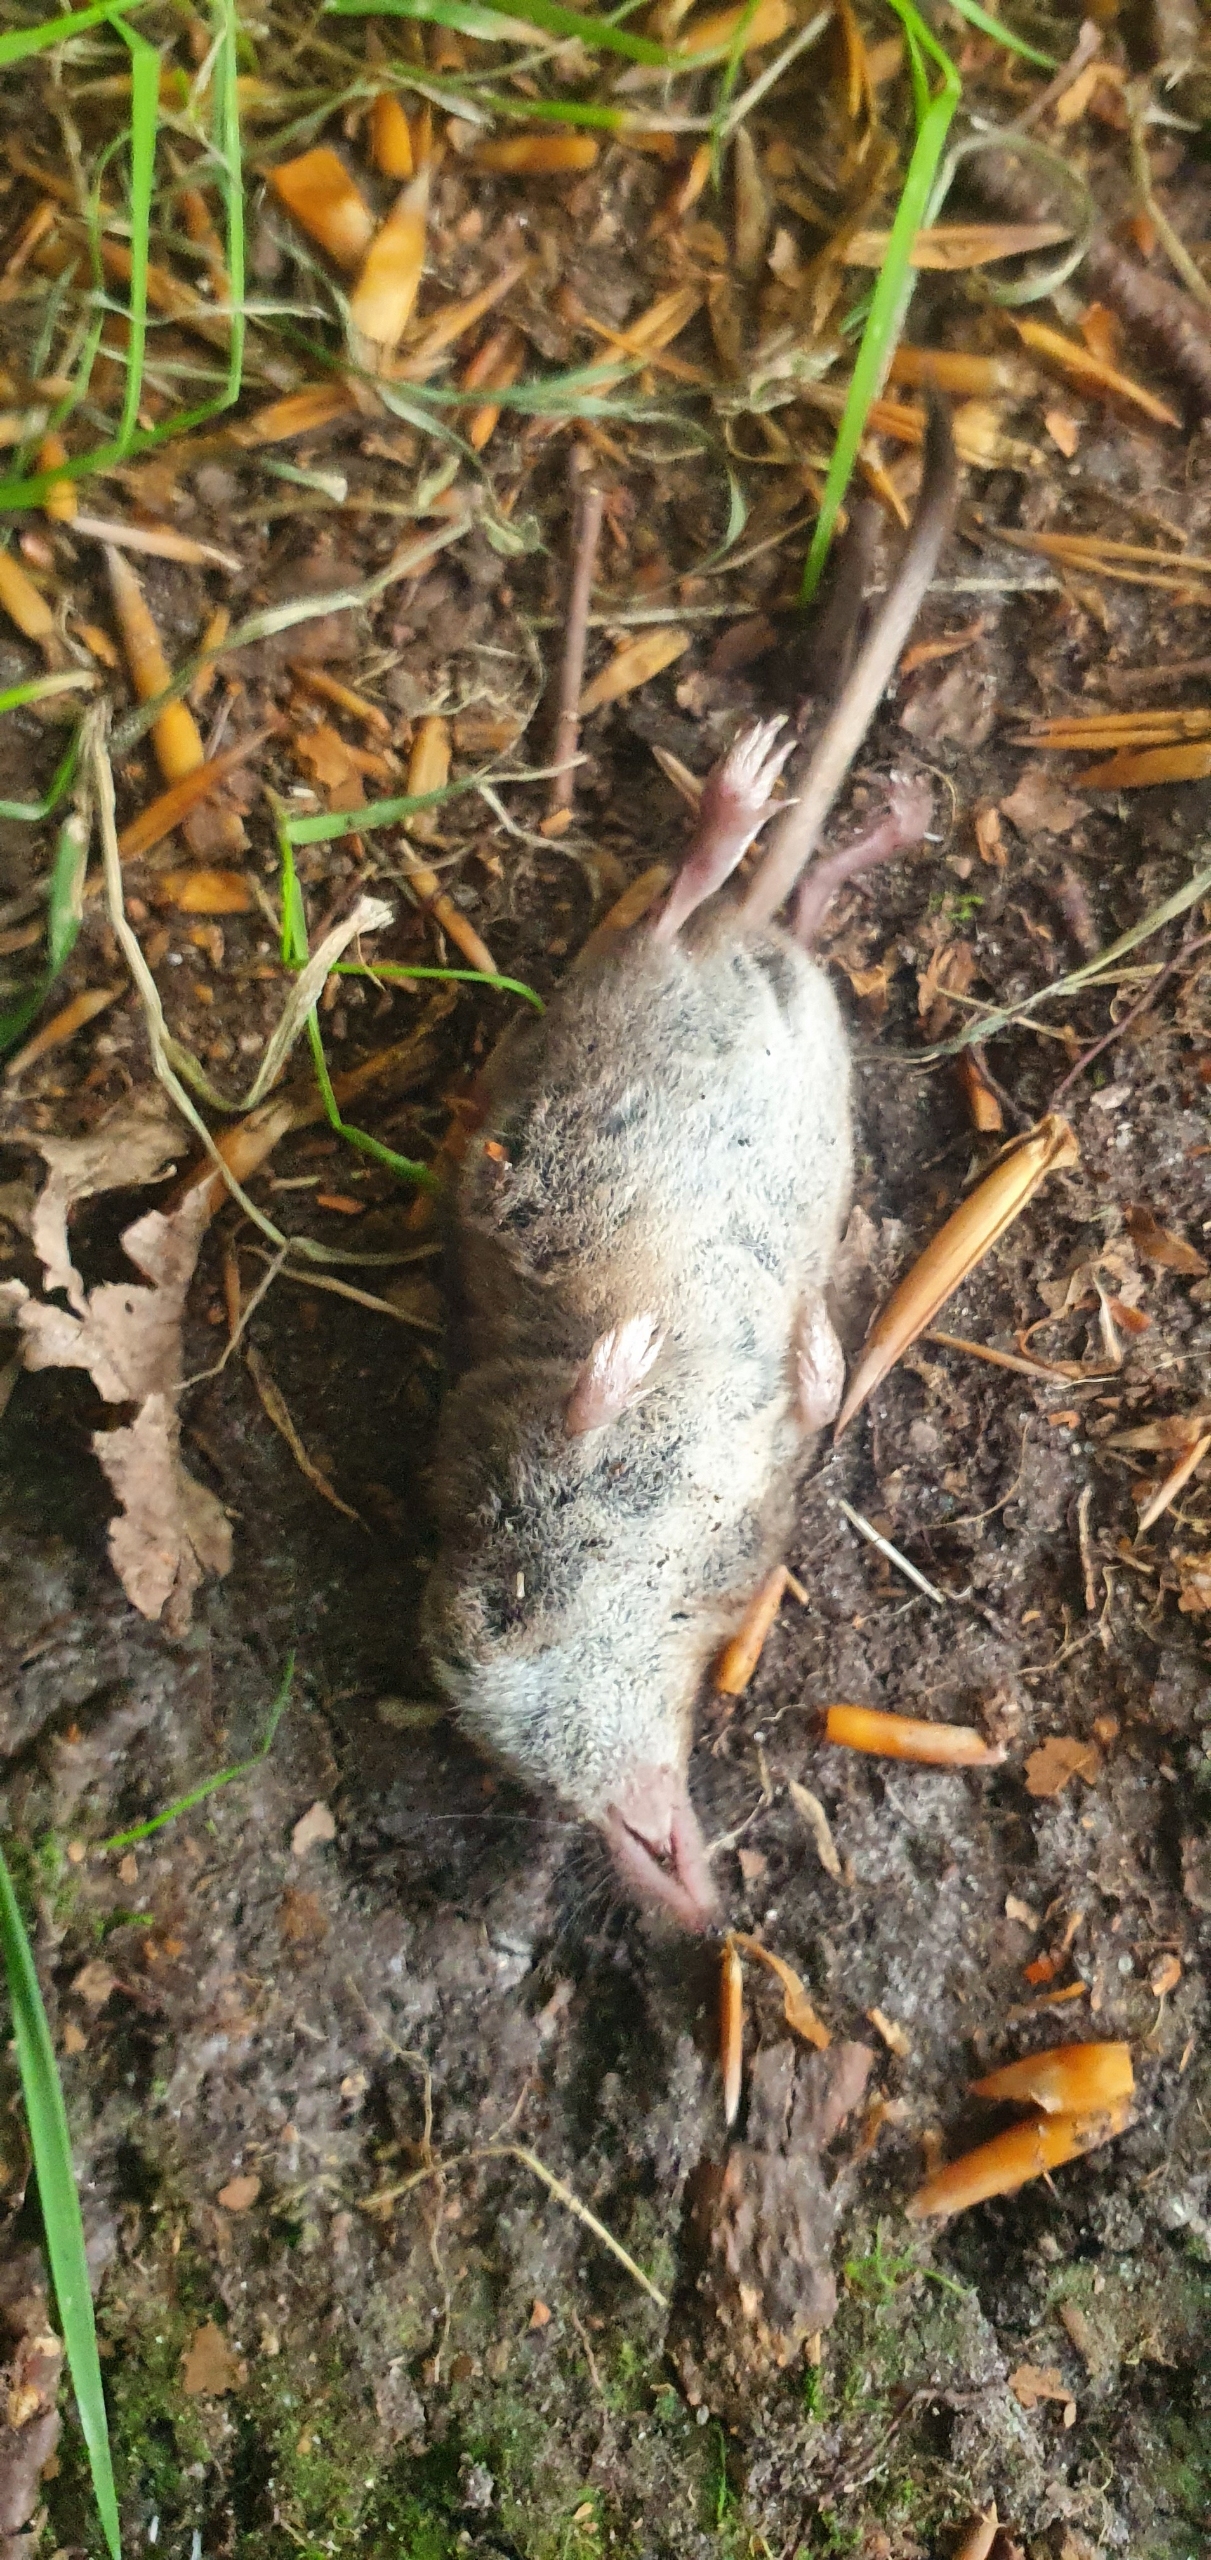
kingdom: Animalia
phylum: Chordata
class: Mammalia
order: Soricomorpha
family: Soricidae
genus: Sorex
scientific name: Sorex araneus
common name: Almindelig spidsmus
